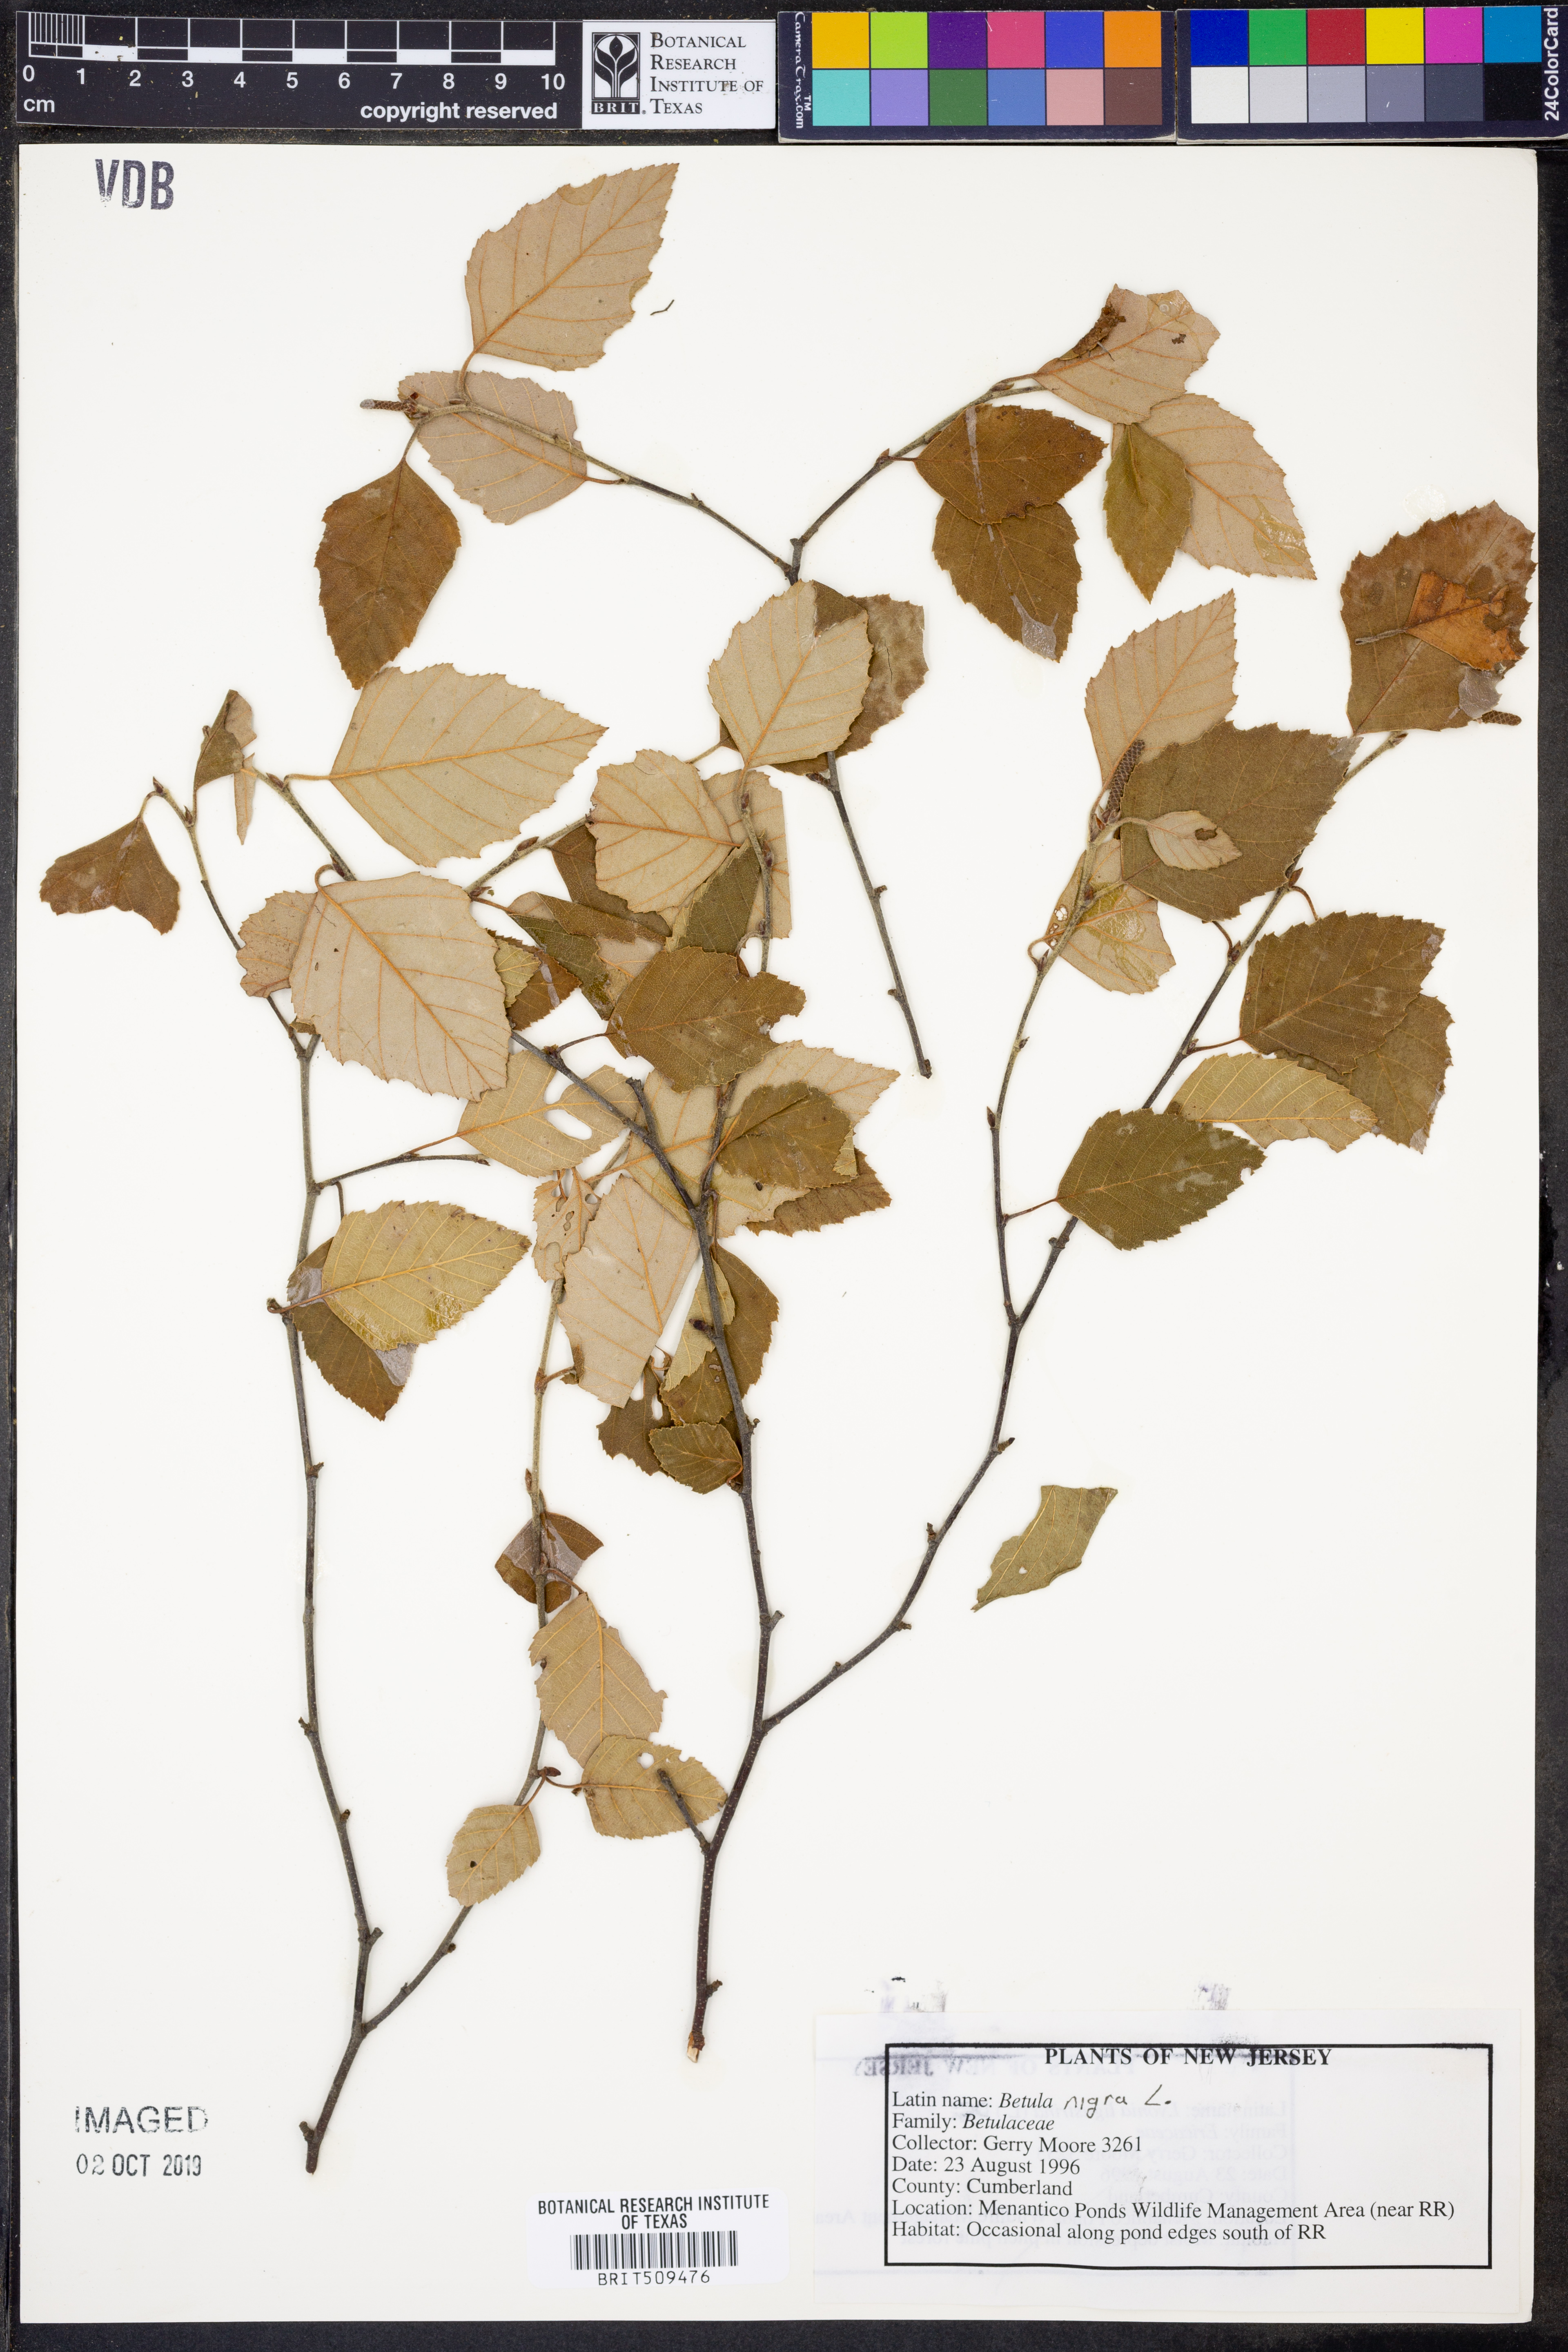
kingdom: Plantae
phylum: Tracheophyta
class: Magnoliopsida
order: Fagales
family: Betulaceae
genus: Betula
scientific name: Betula nigra
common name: Black birch
